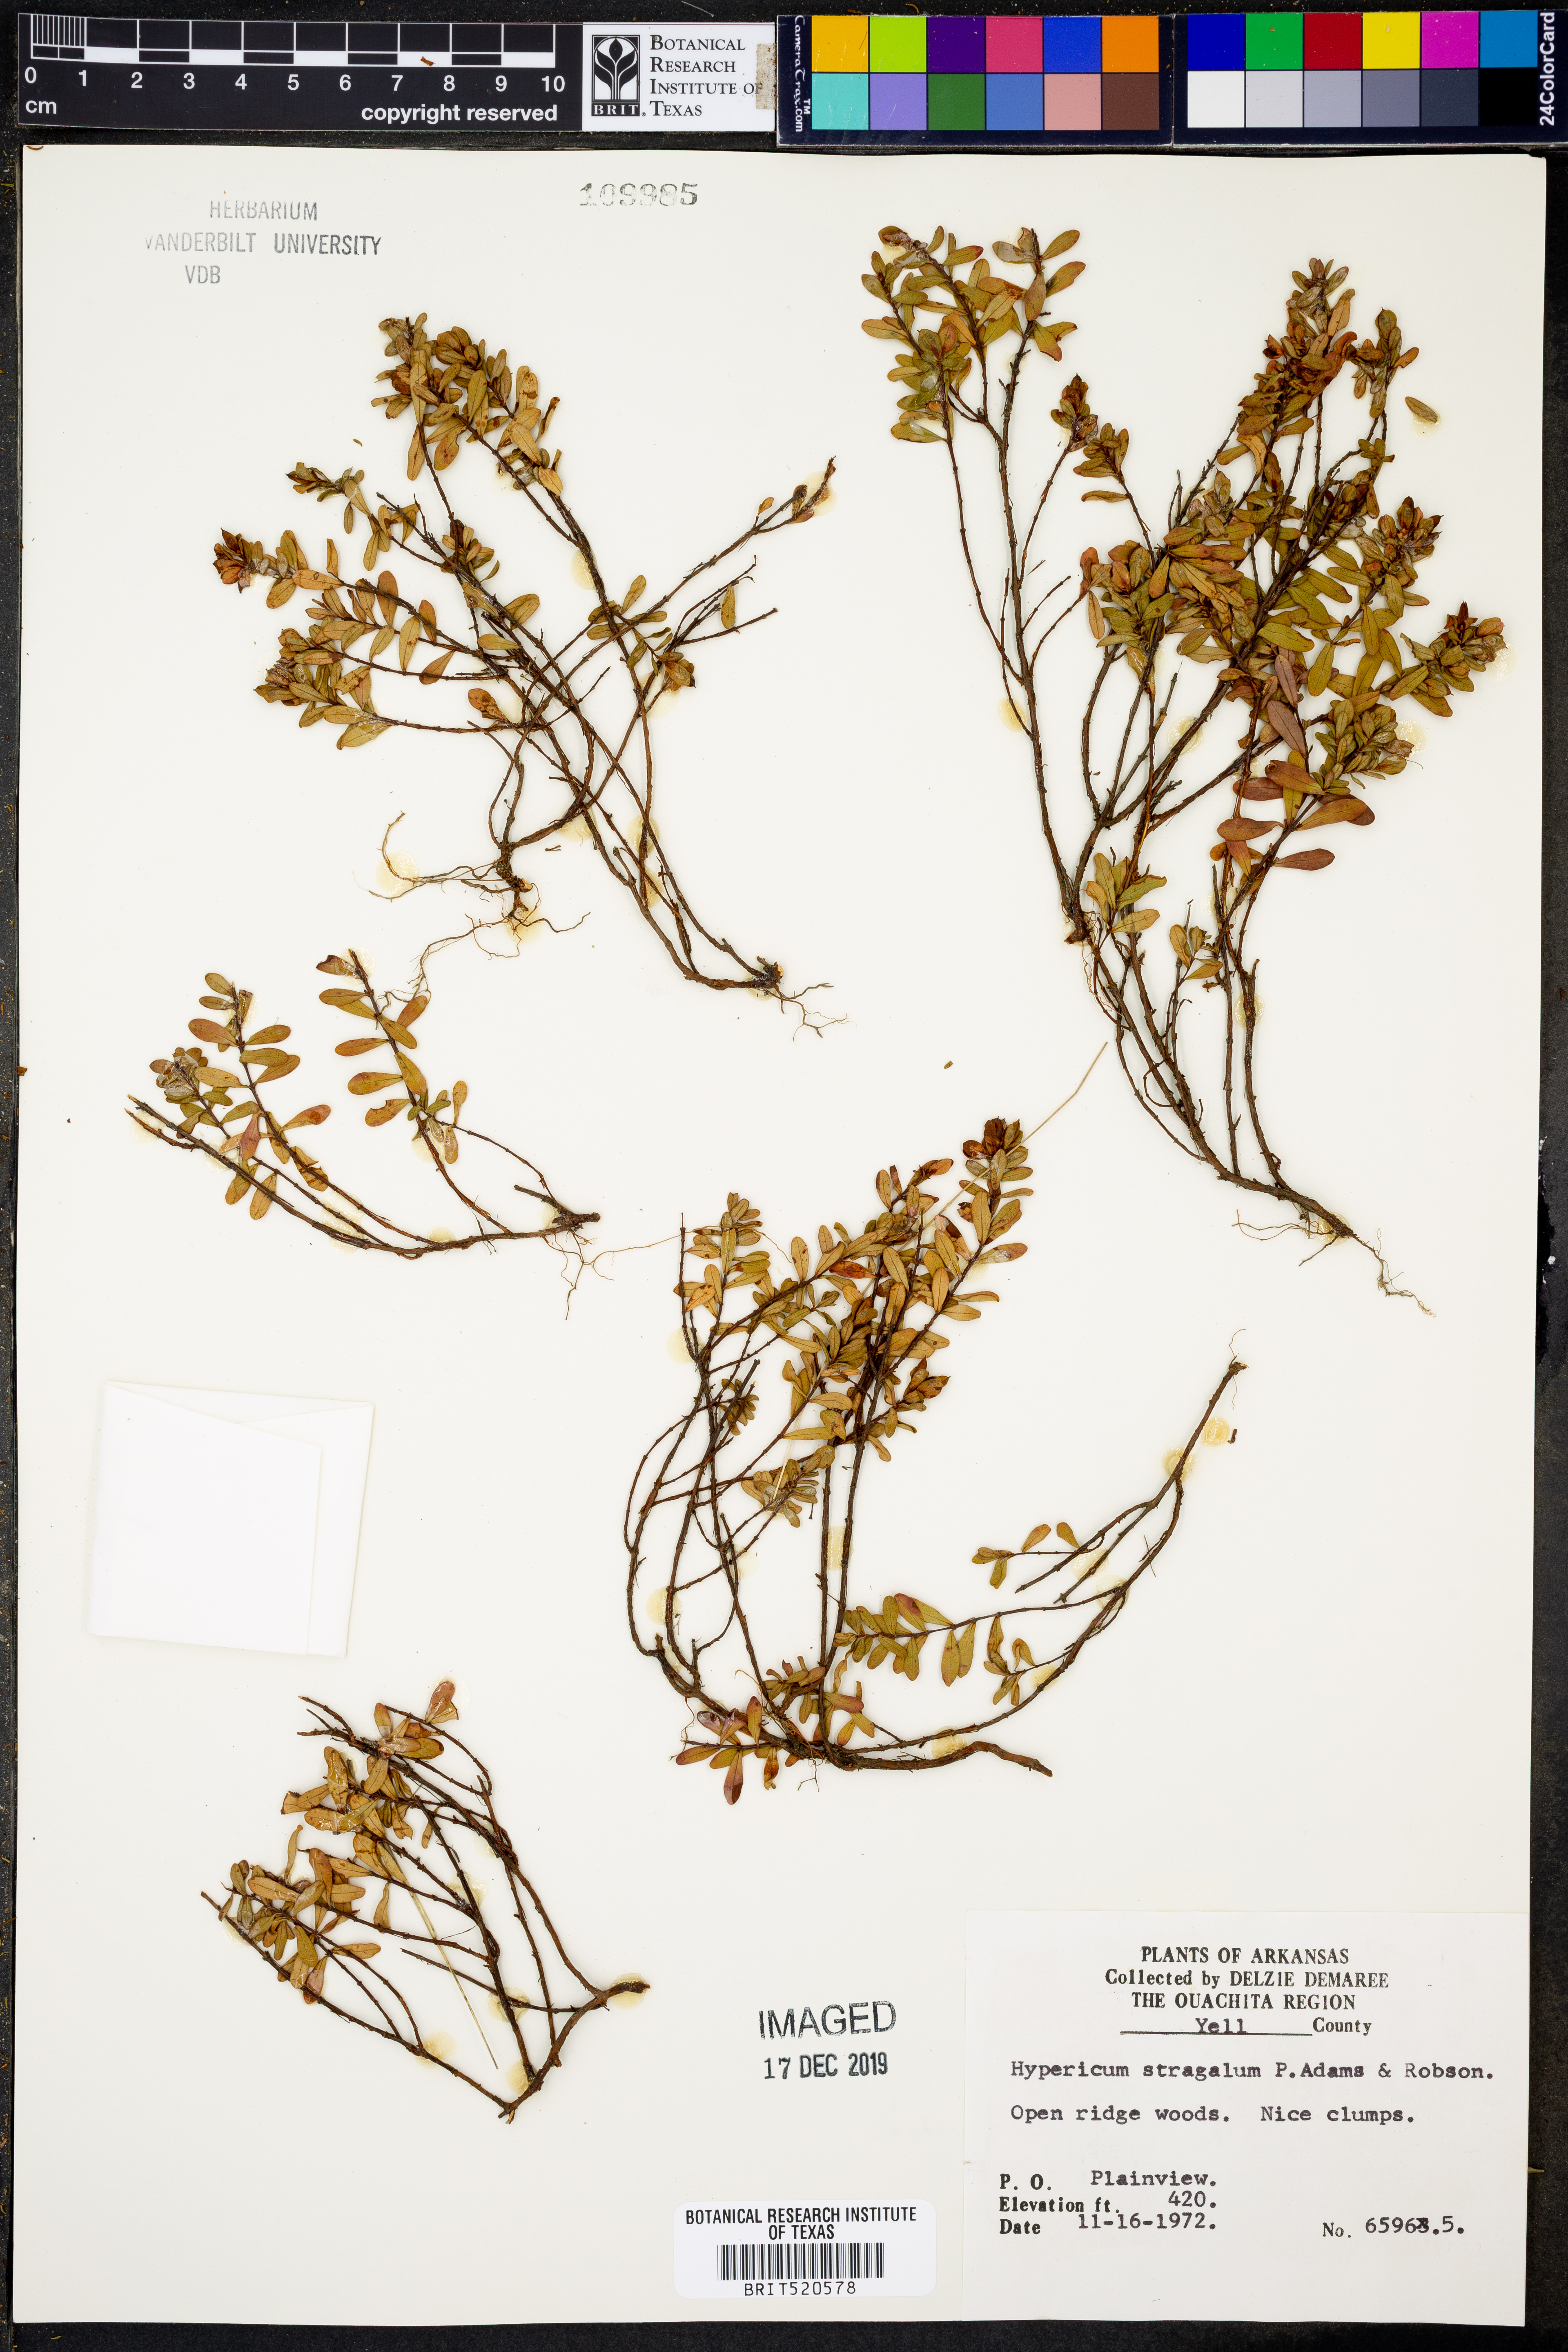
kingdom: Plantae
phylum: Tracheophyta
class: Magnoliopsida
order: Malpighiales
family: Hypericaceae
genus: Hypericum
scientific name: Hypericum hypericoides
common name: St. andrew's cross
